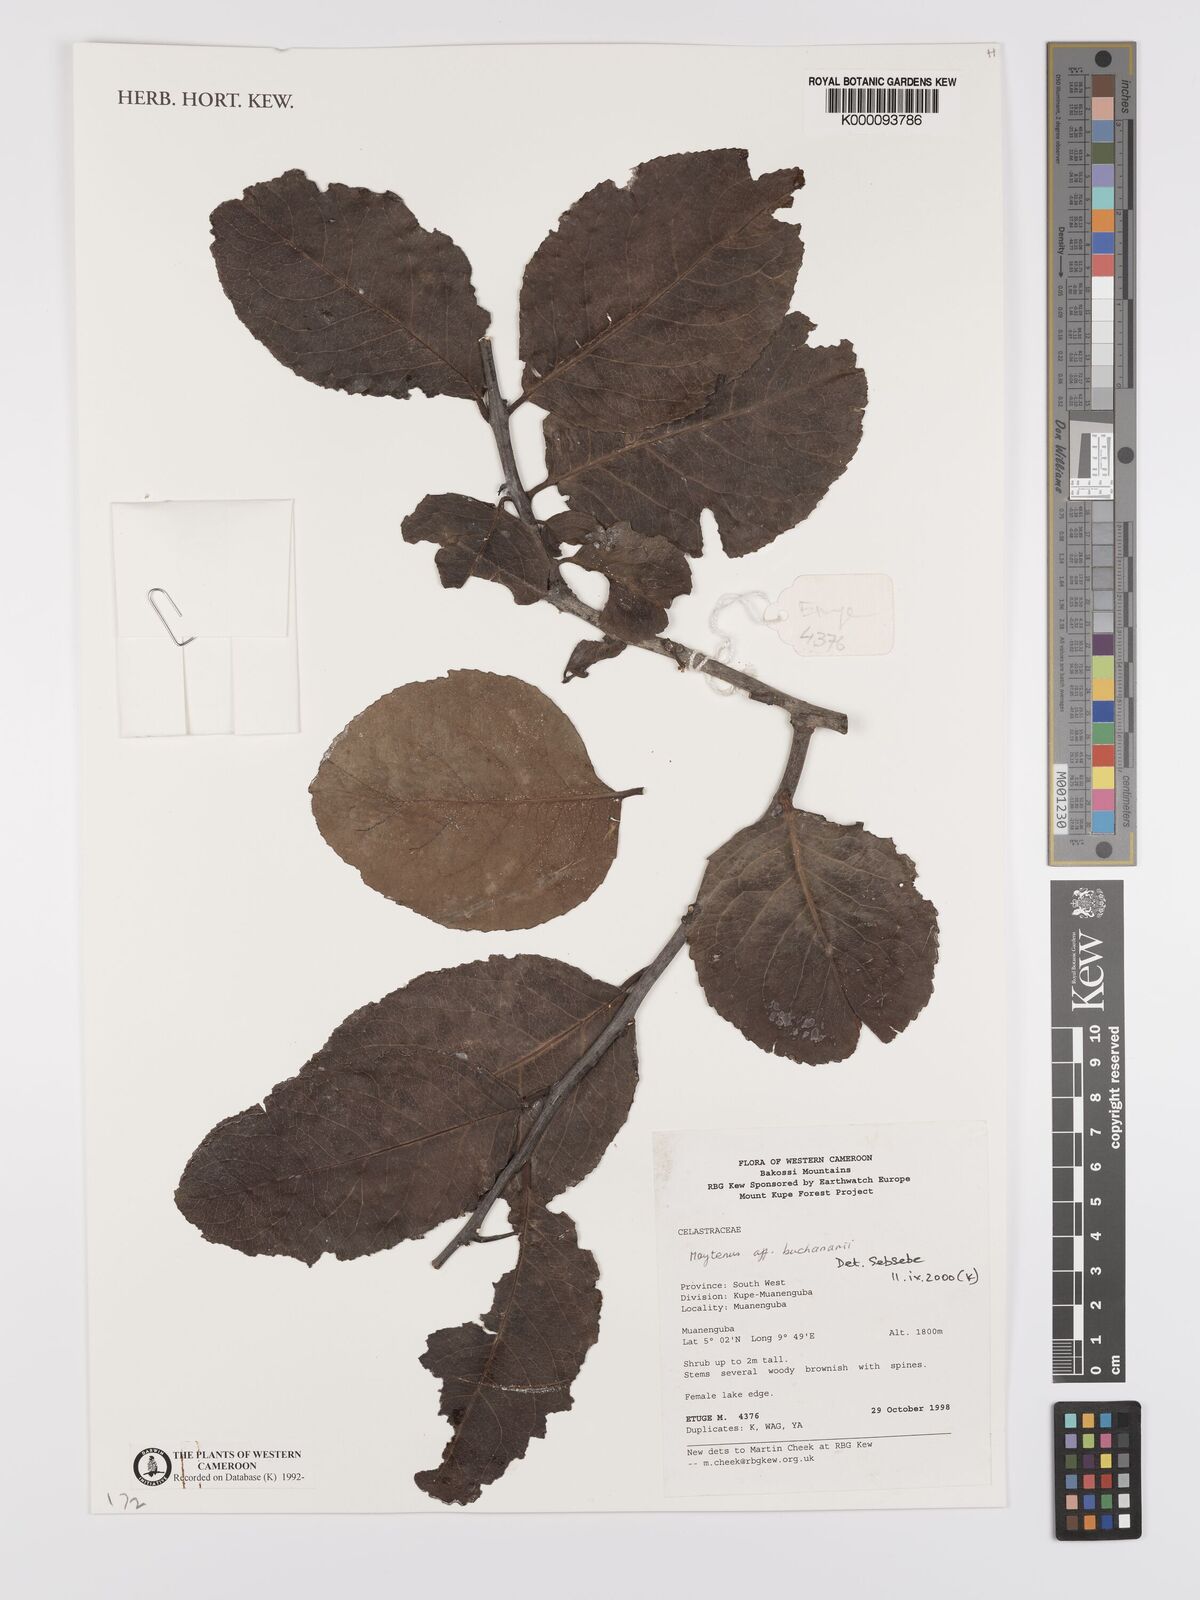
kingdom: Plantae
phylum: Tracheophyta
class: Magnoliopsida
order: Celastrales
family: Celastraceae
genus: Gymnosporia
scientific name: Gymnosporia buchananii
